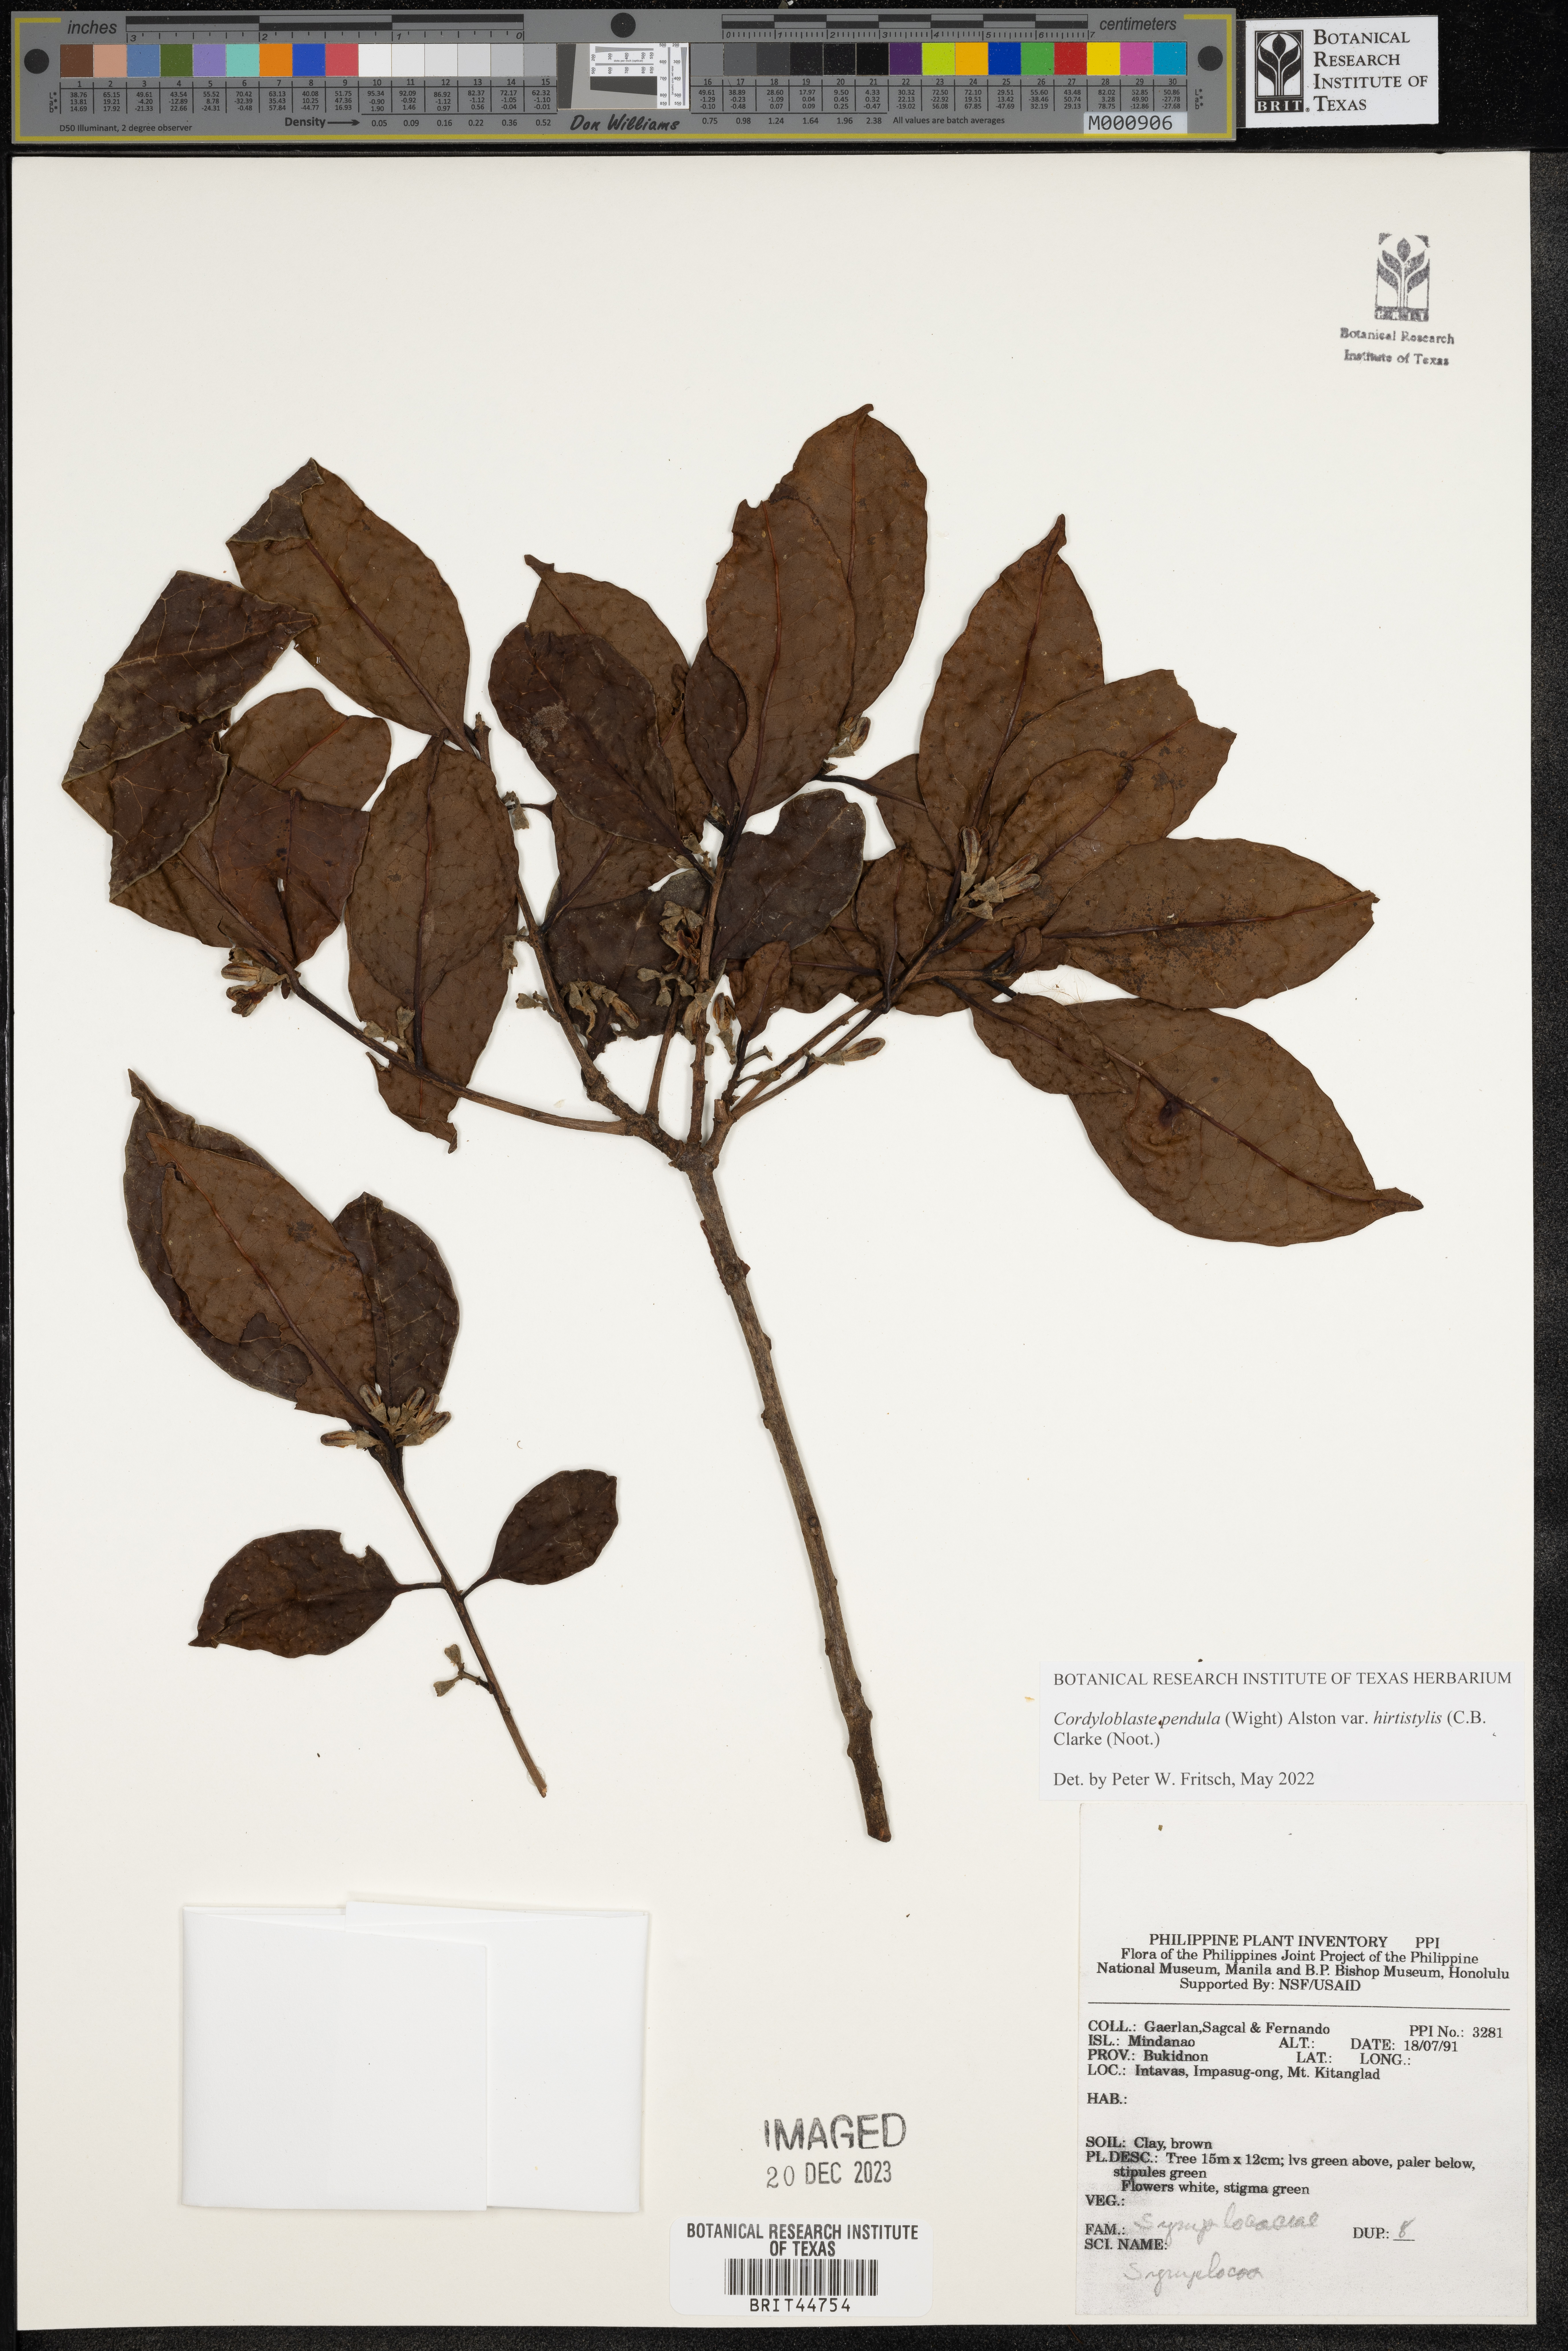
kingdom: Plantae
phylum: Tracheophyta
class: Magnoliopsida
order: Ericales
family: Symplocaceae
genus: Symplocos
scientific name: Symplocos pendula
